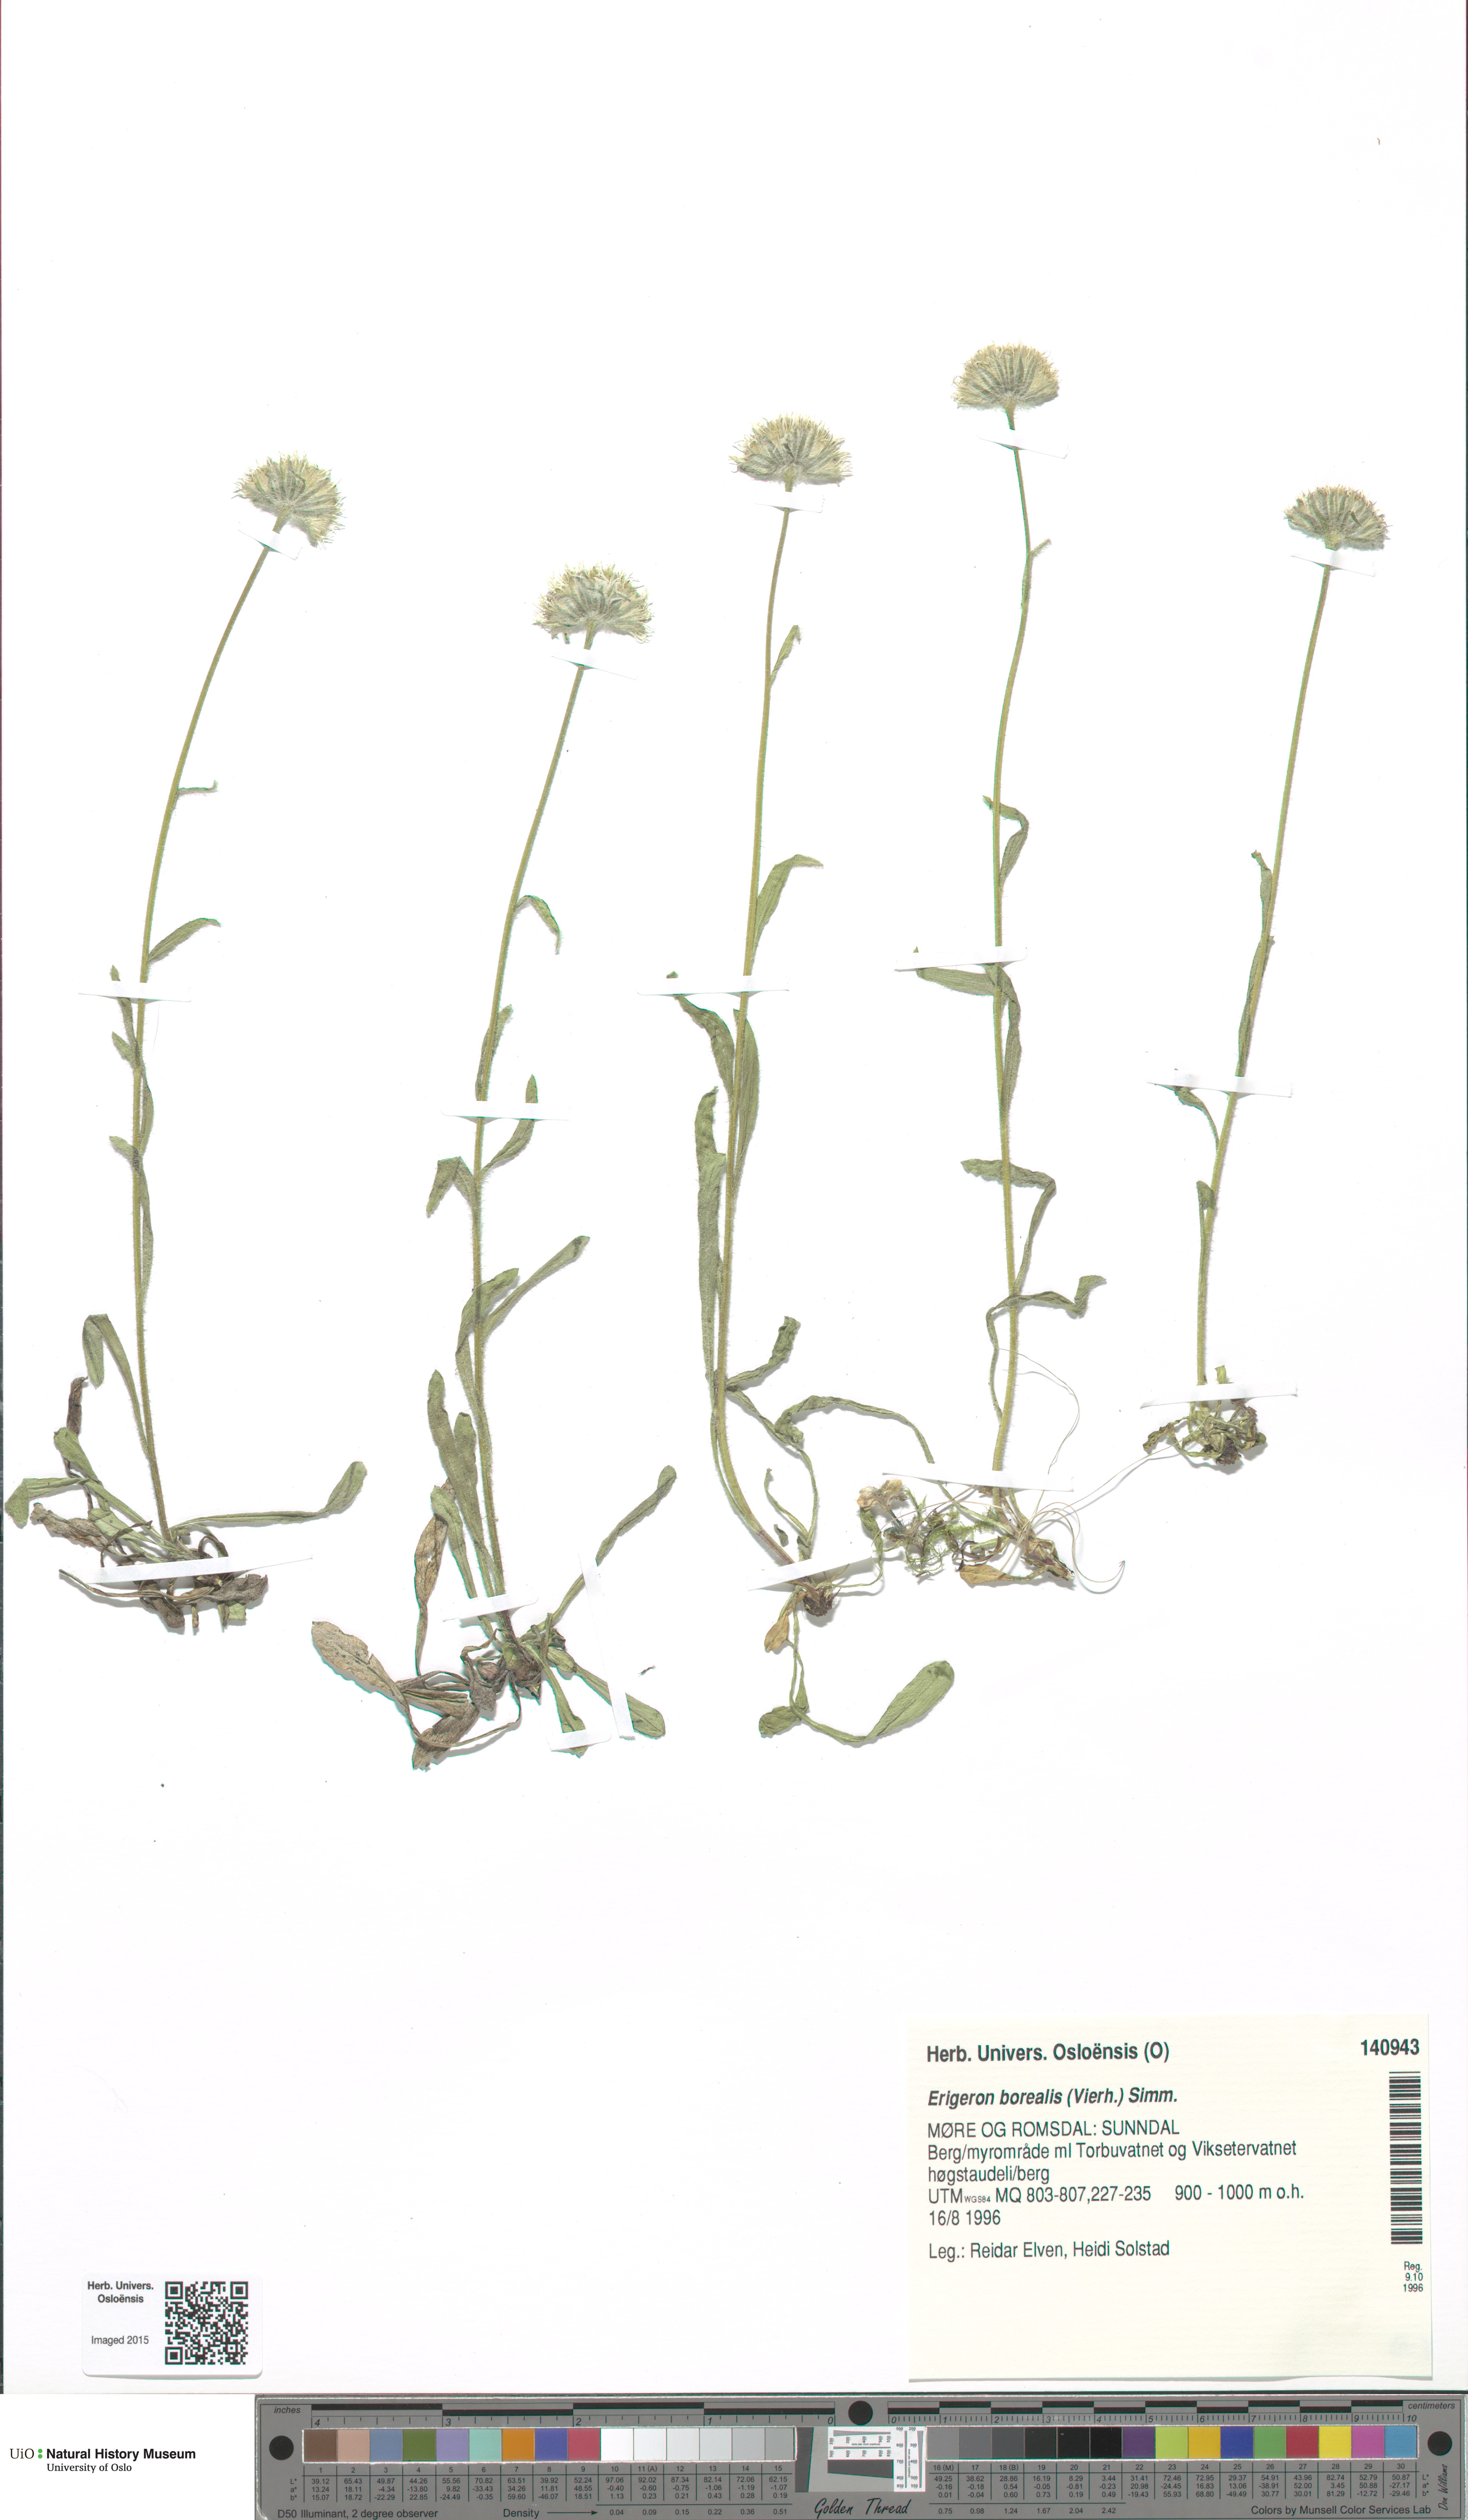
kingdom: Plantae
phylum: Tracheophyta
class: Magnoliopsida
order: Asterales
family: Asteraceae
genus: Erigeron
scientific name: Erigeron borealis
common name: Alpine fleabane
